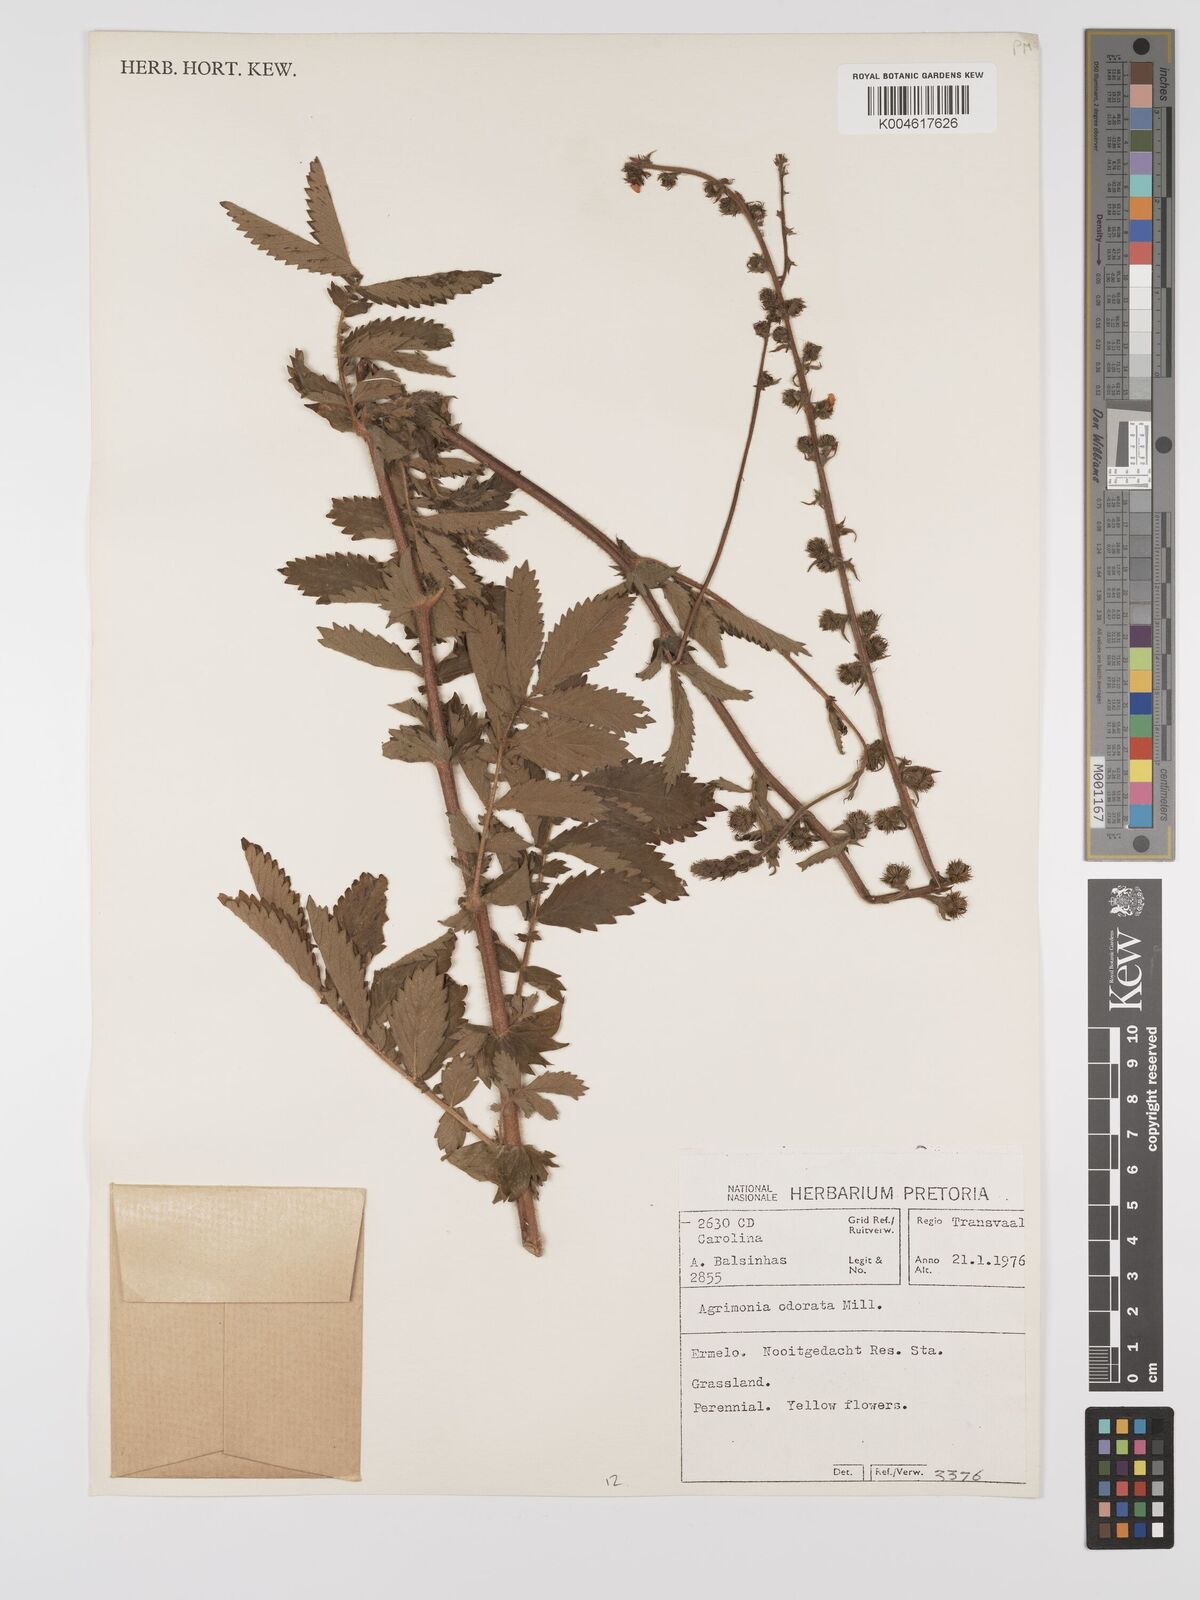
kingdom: Plantae
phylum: Tracheophyta
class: Magnoliopsida
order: Rosales
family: Rosaceae
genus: Agrimonia
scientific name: Agrimonia repens
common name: Creeping agrimony
